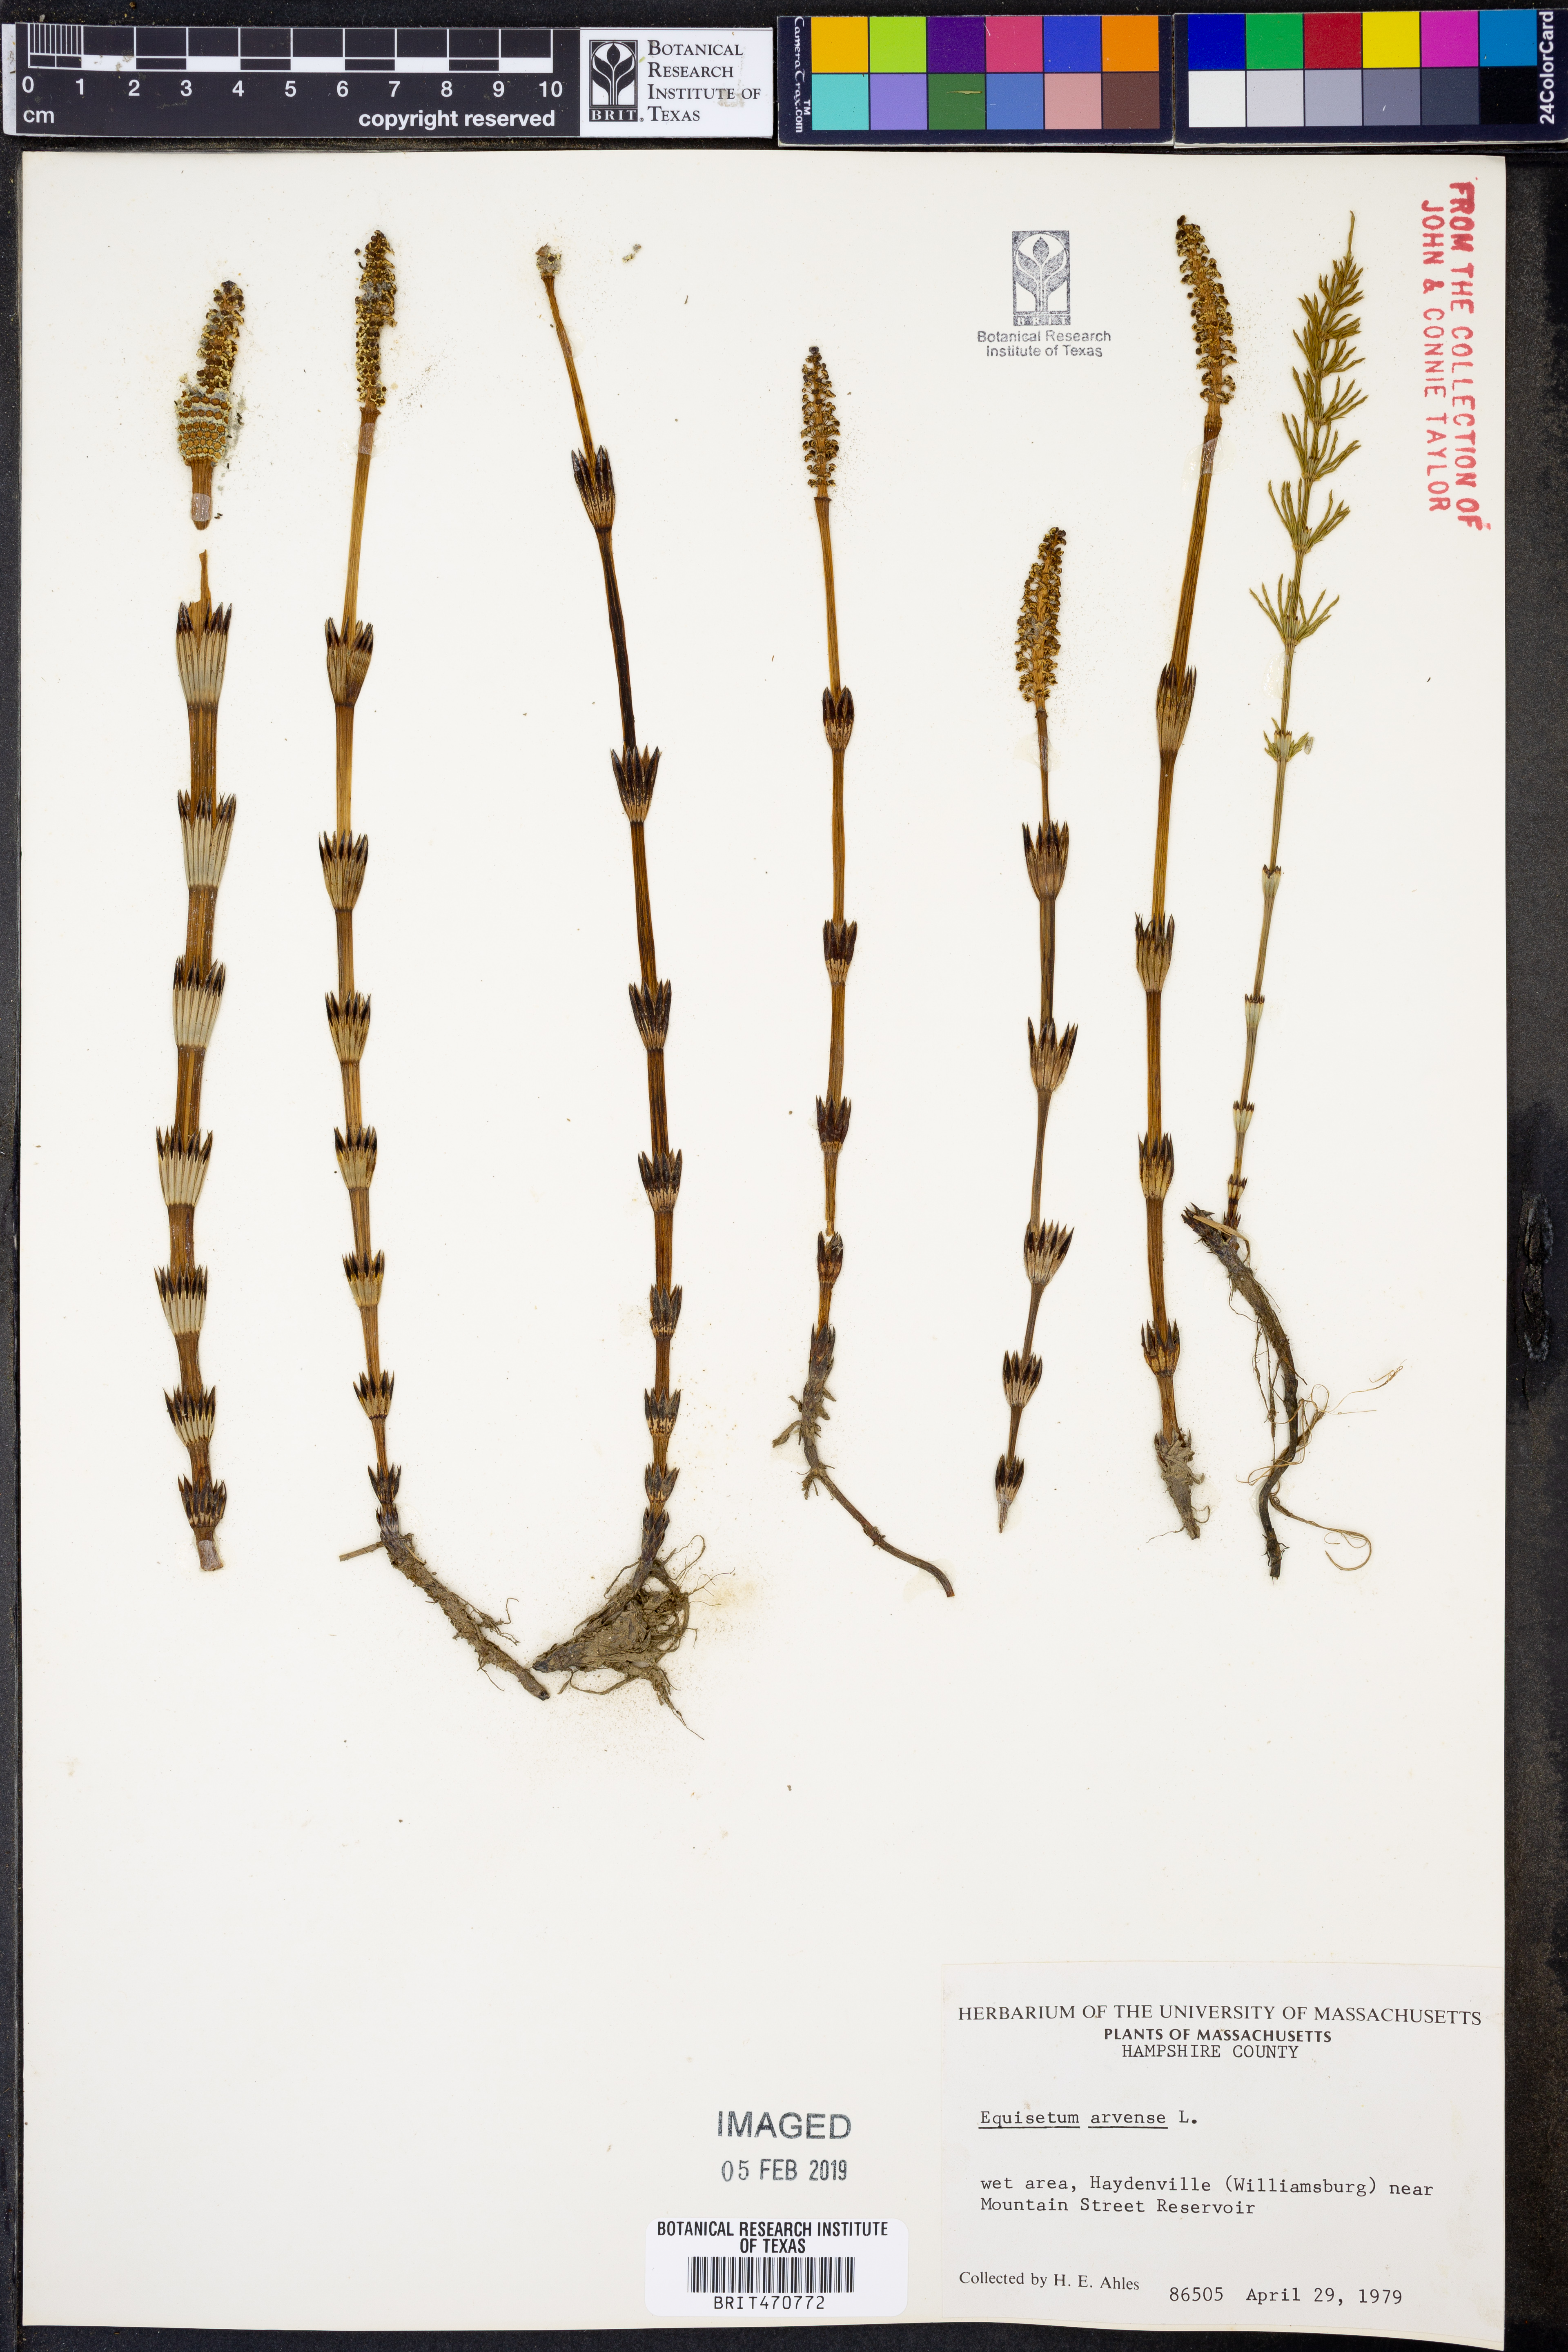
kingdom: Plantae
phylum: Tracheophyta
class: Polypodiopsida
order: Equisetales
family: Equisetaceae
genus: Equisetum
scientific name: Equisetum arvense
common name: Field horsetail
